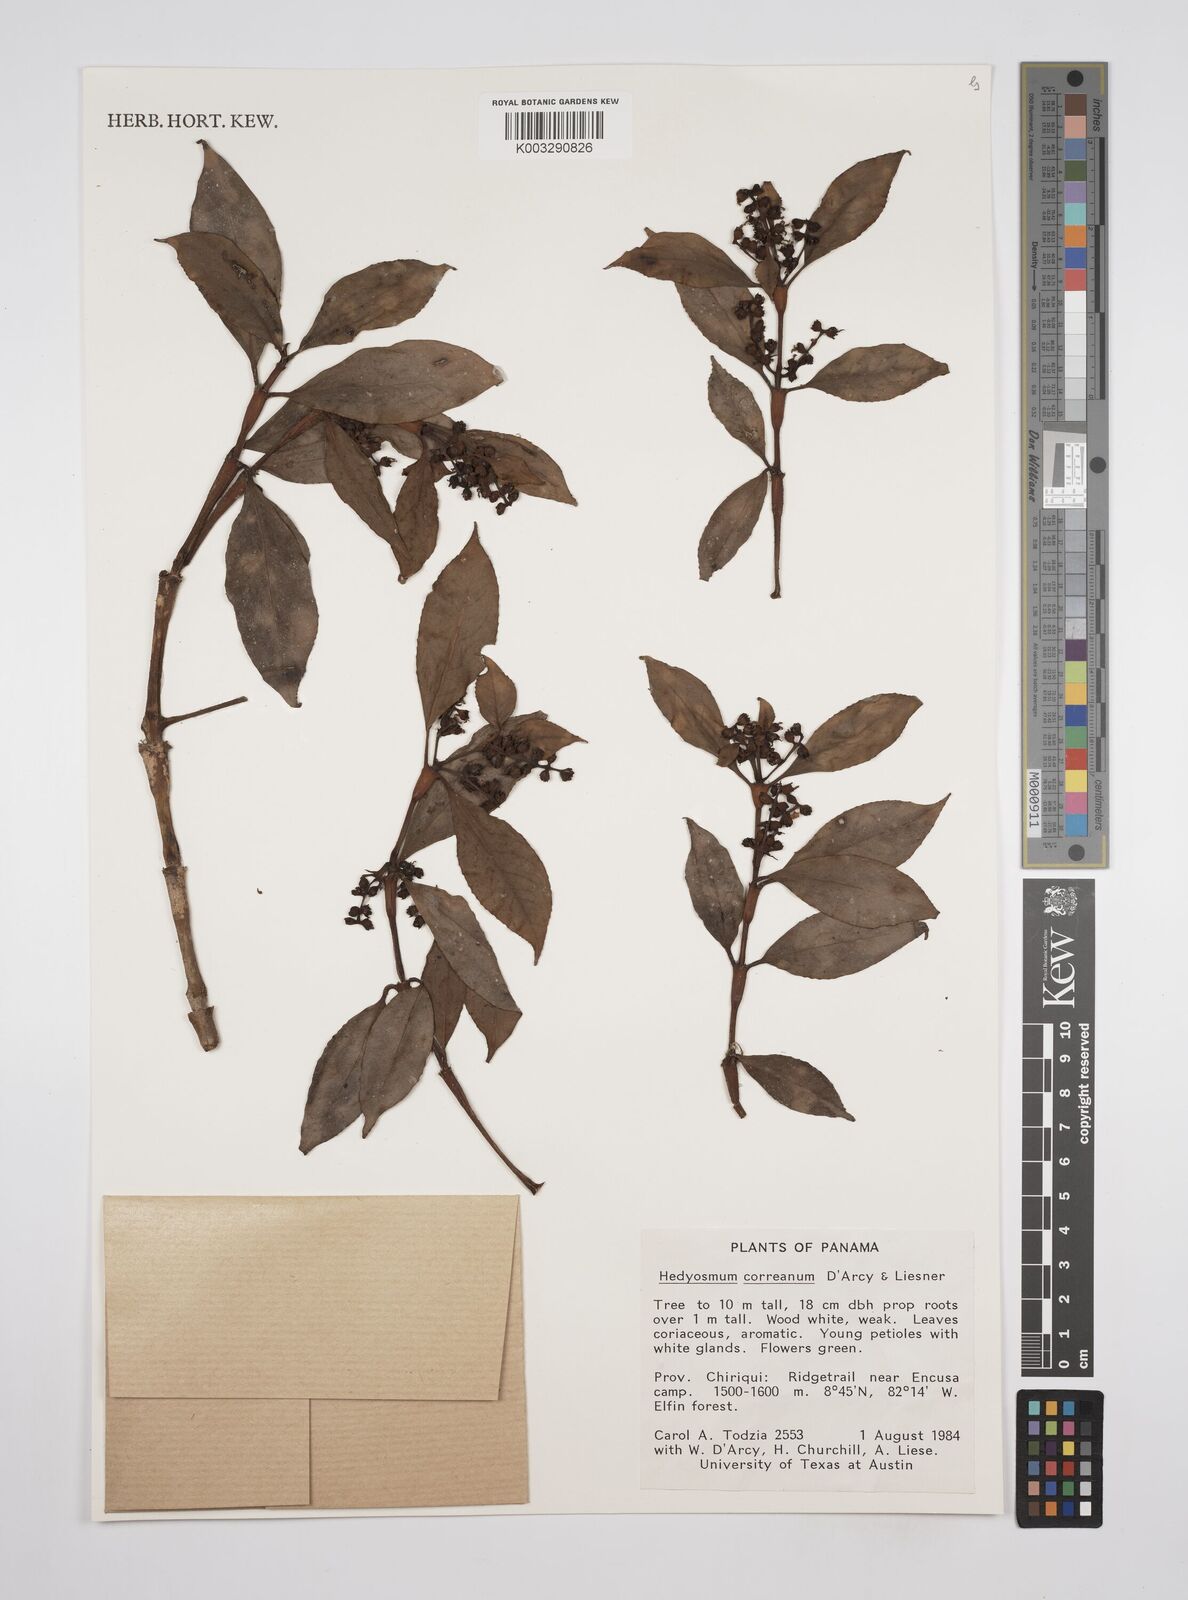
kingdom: Plantae
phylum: Tracheophyta
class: Magnoliopsida
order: Chloranthales
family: Chloranthaceae
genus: Hedyosmum
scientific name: Hedyosmum correanum
